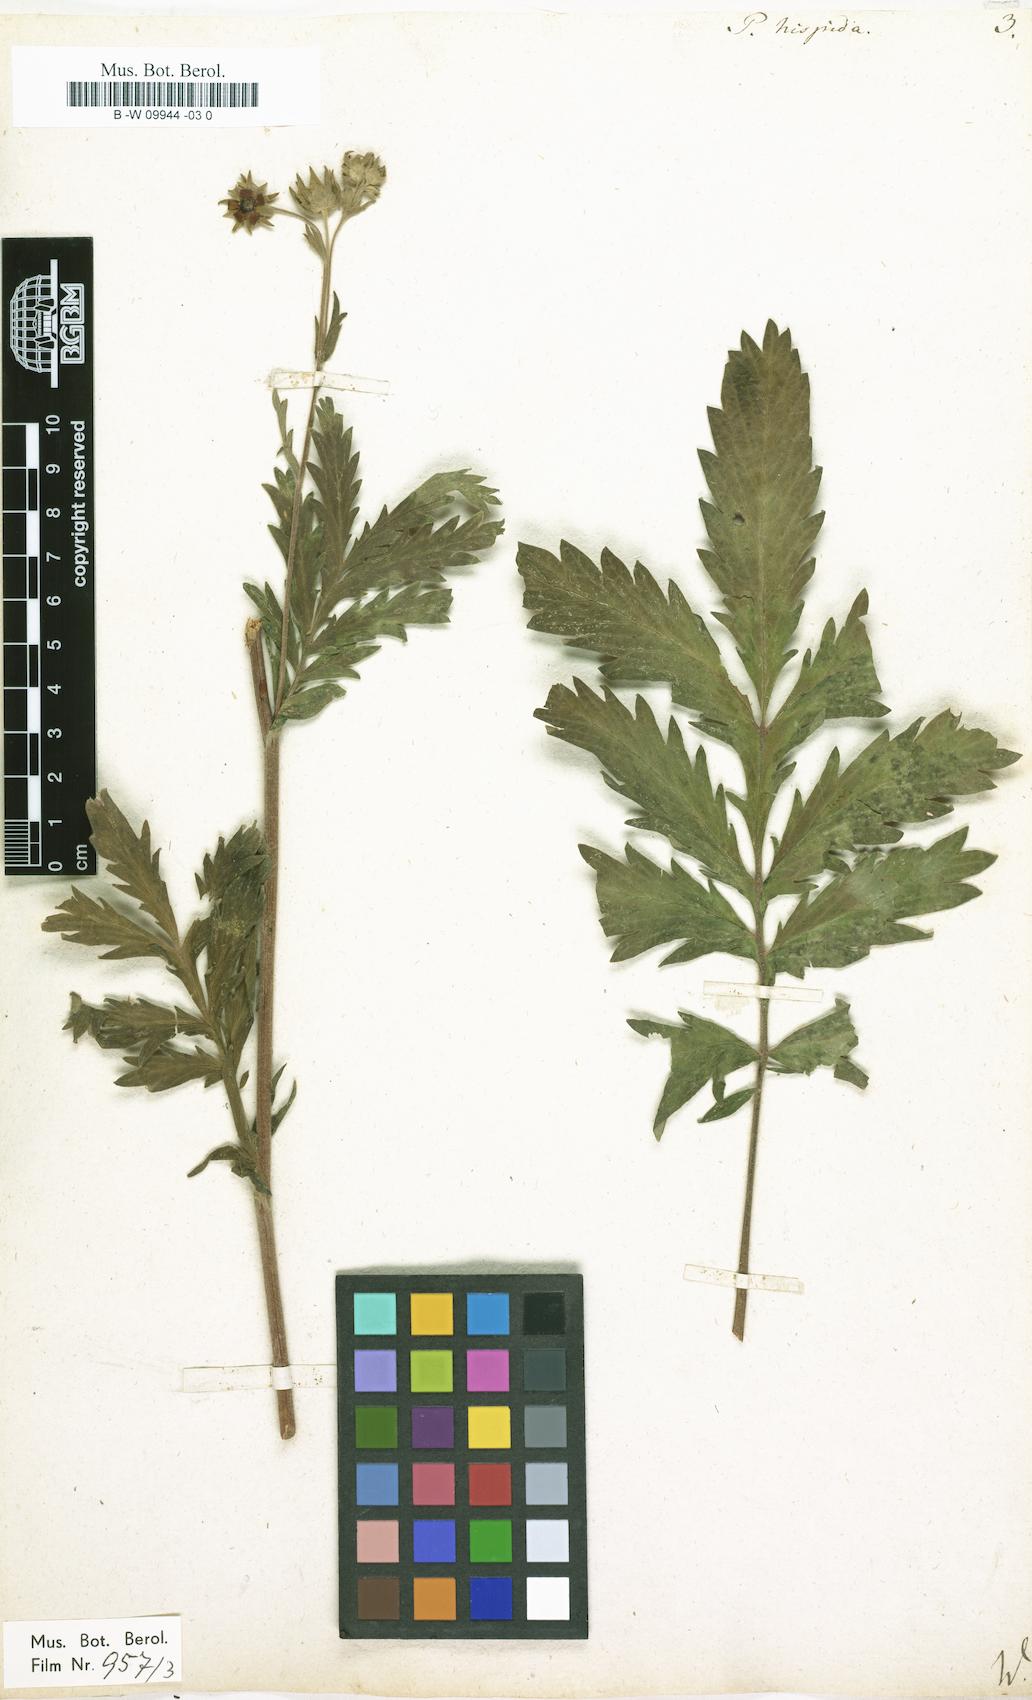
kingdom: Plantae
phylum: Tracheophyta
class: Magnoliopsida
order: Rosales
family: Rosaceae
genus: Potentilla
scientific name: Potentilla
